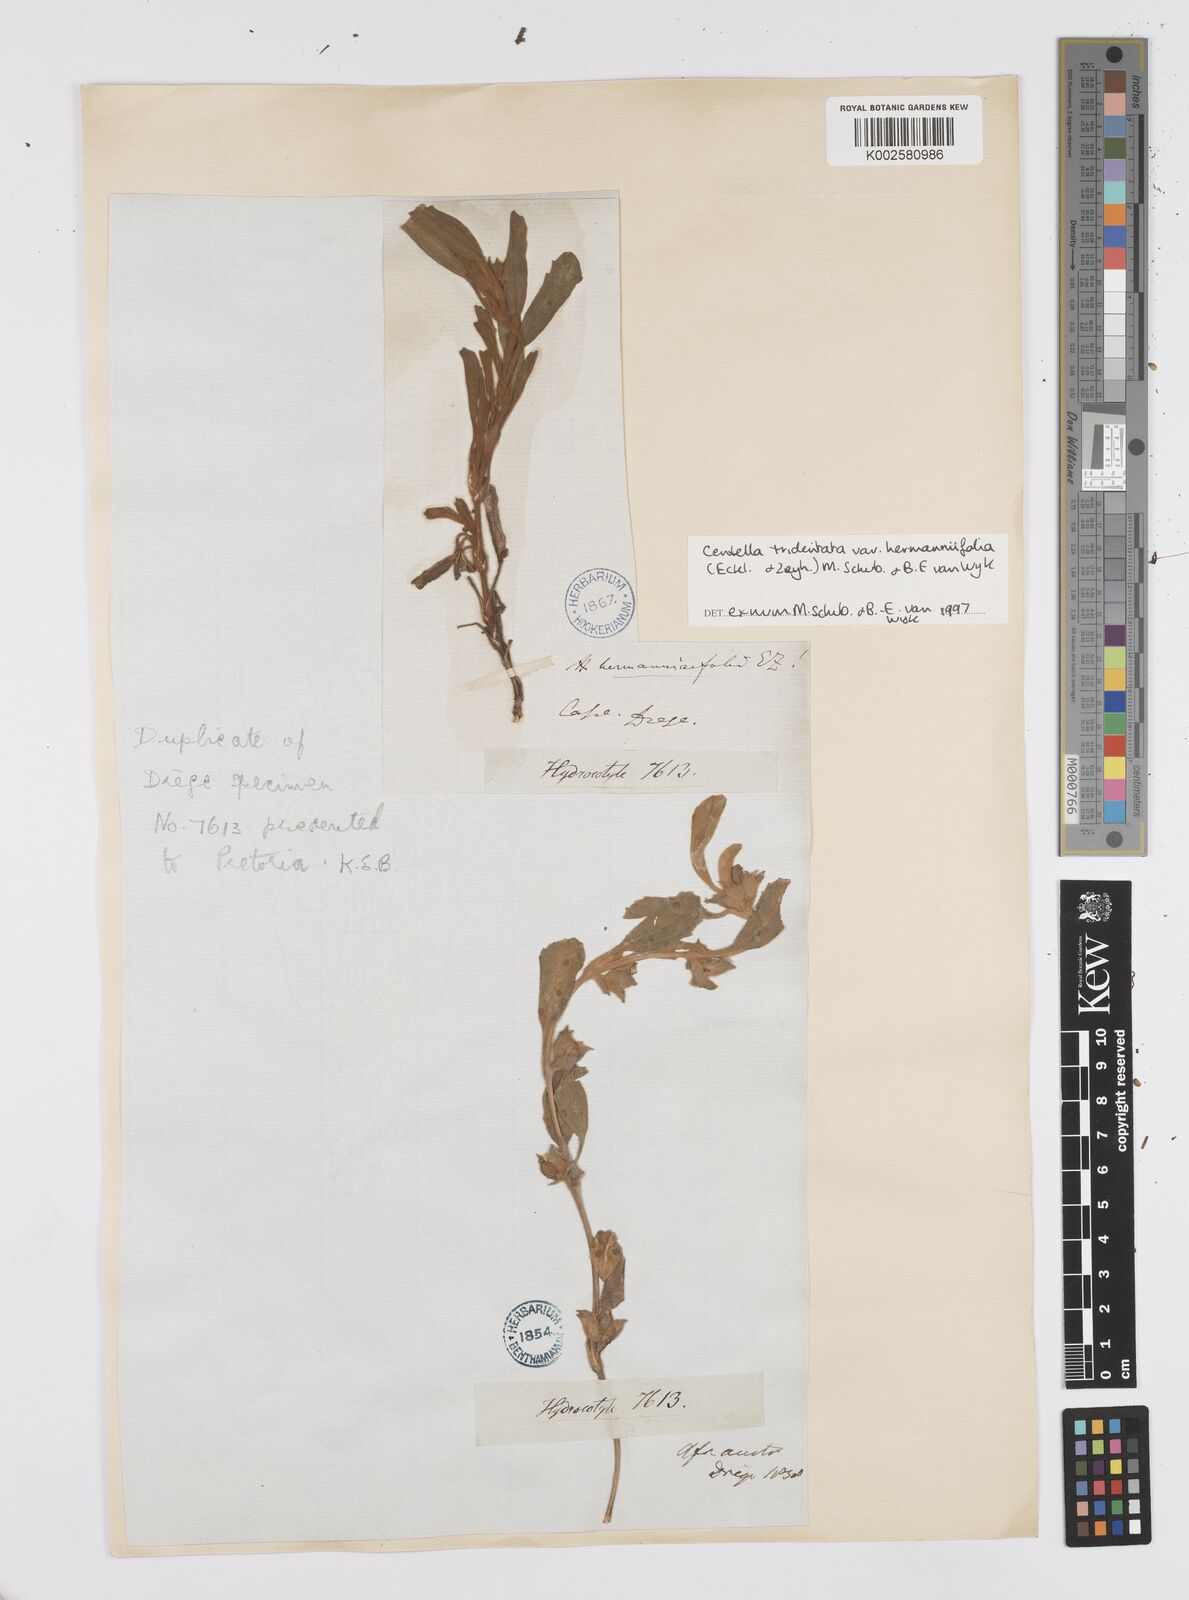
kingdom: Plantae
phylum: Tracheophyta
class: Magnoliopsida
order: Apiales
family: Apiaceae
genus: Centella
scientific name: Centella tridentata
